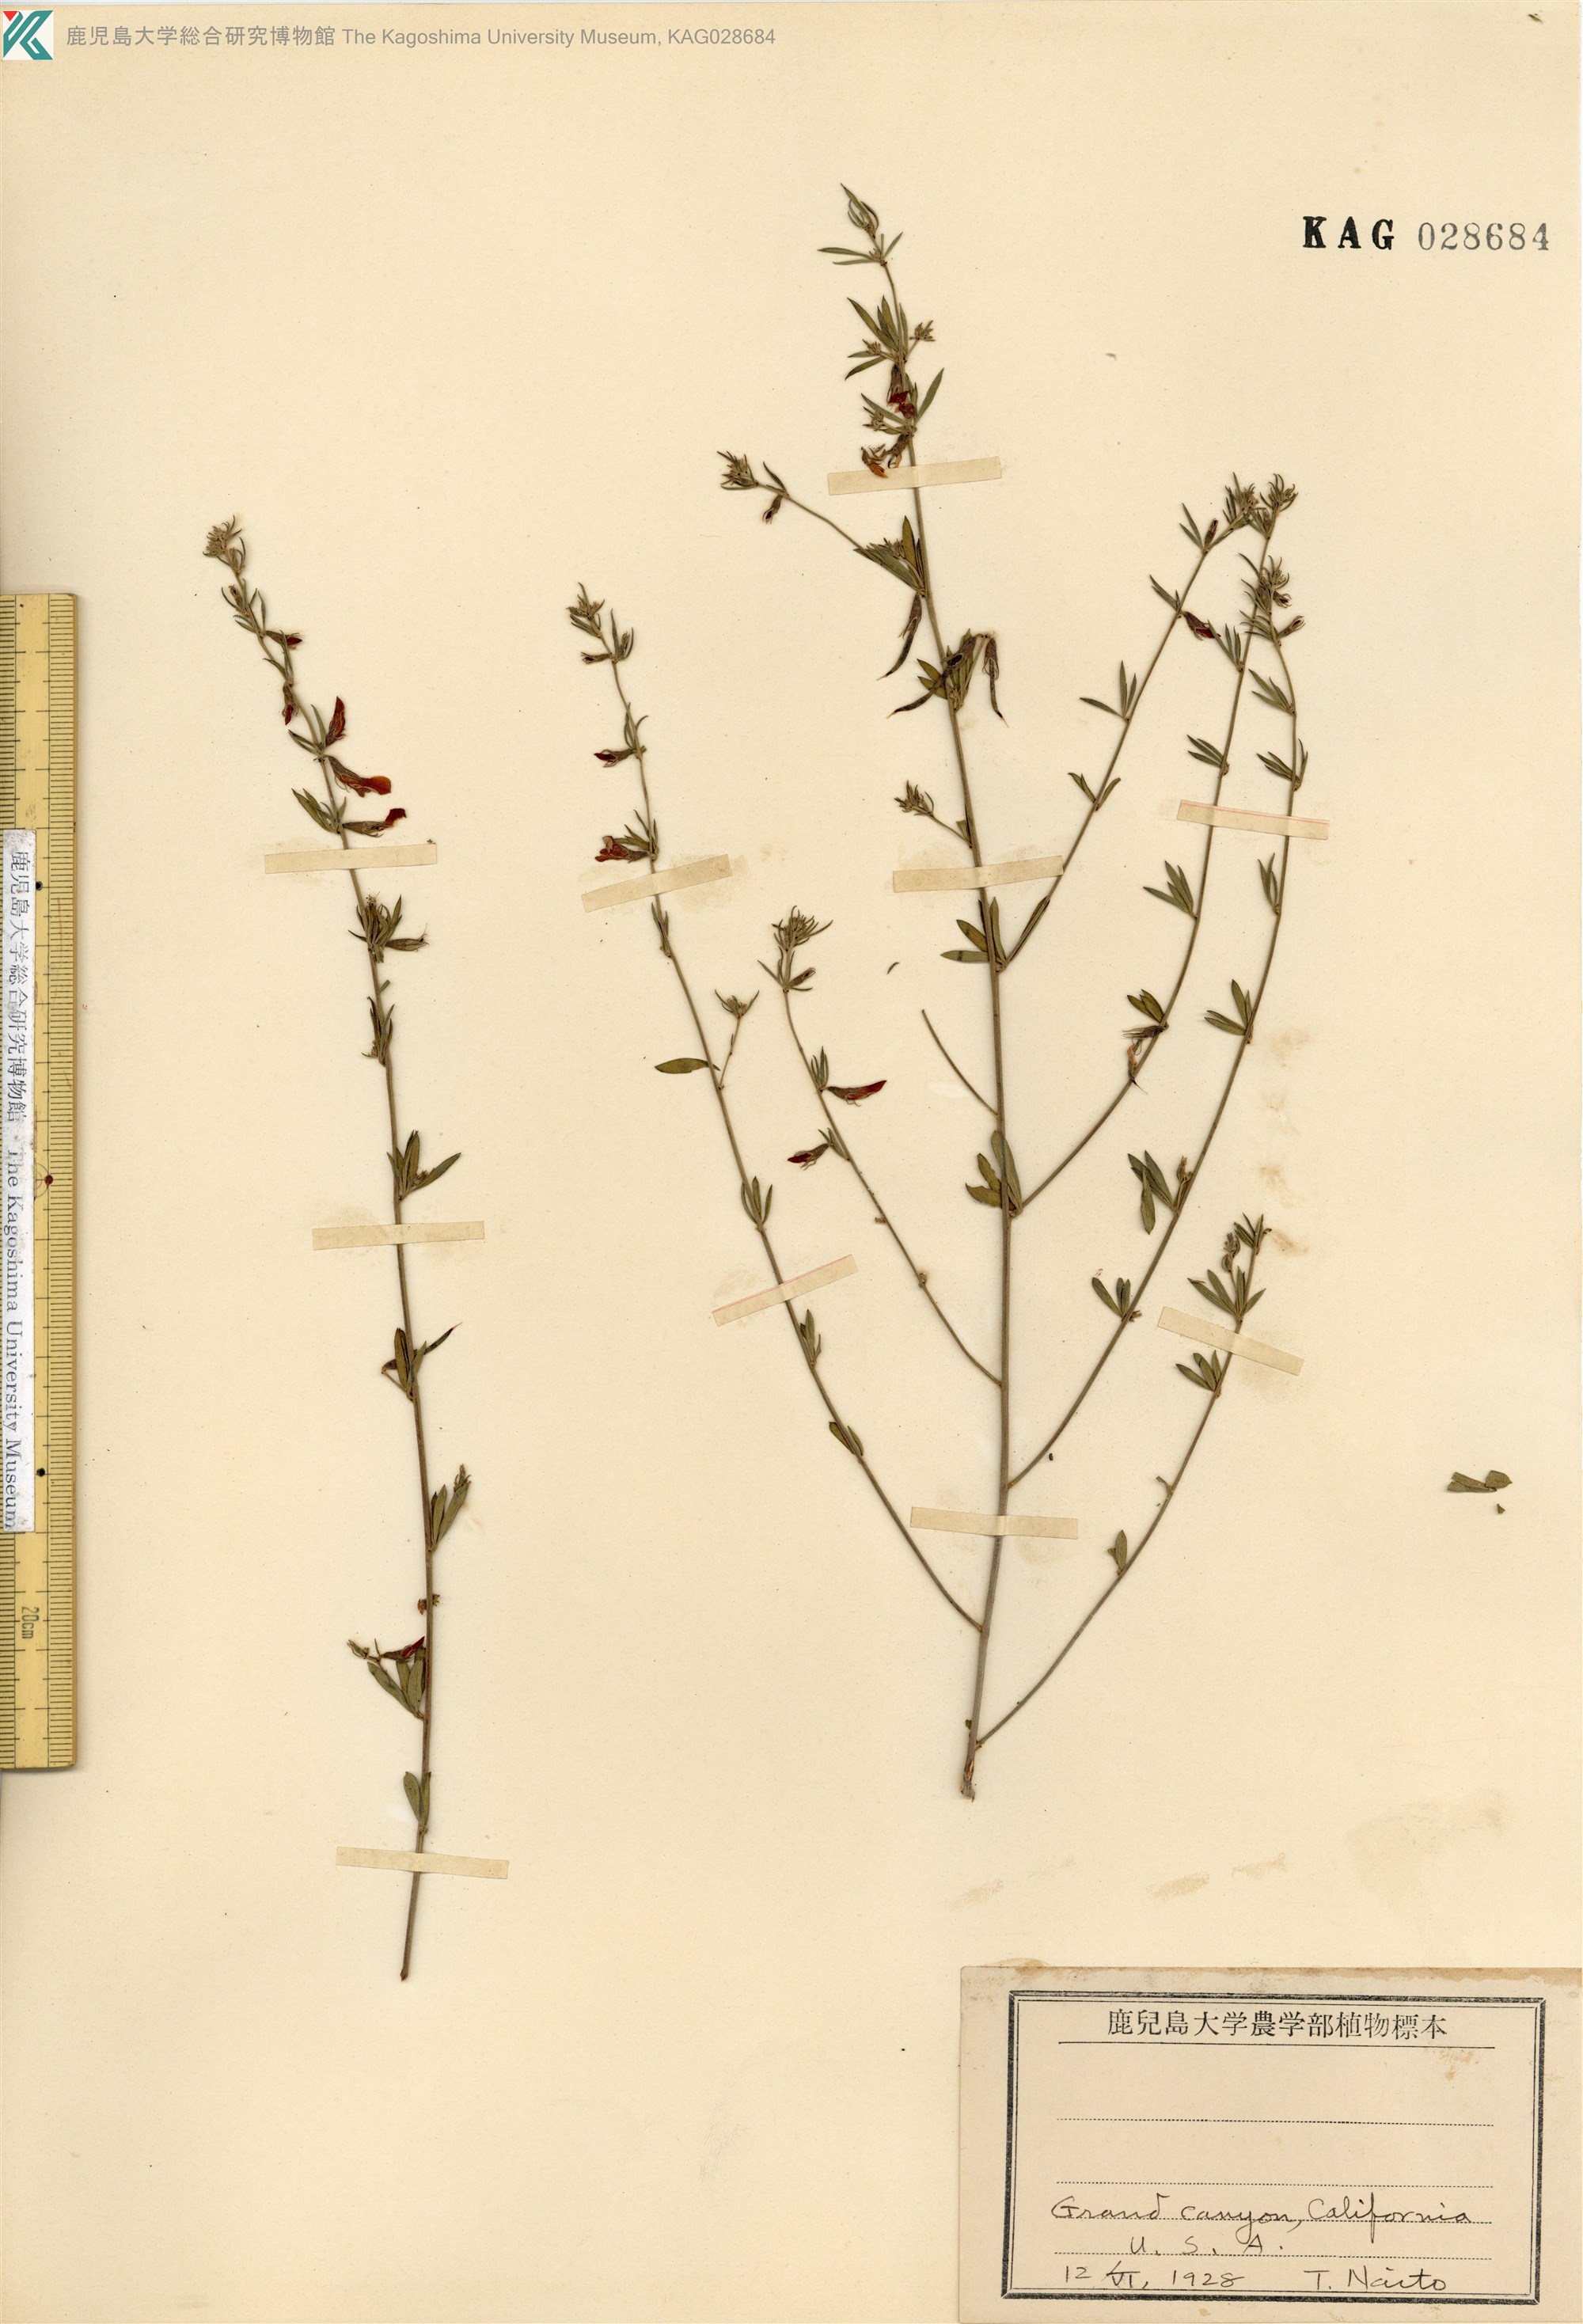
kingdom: Plantae
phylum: Tracheophyta
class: Magnoliopsida
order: Fabales
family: Fabaceae
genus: Acmispon
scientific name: Acmispon glaber
